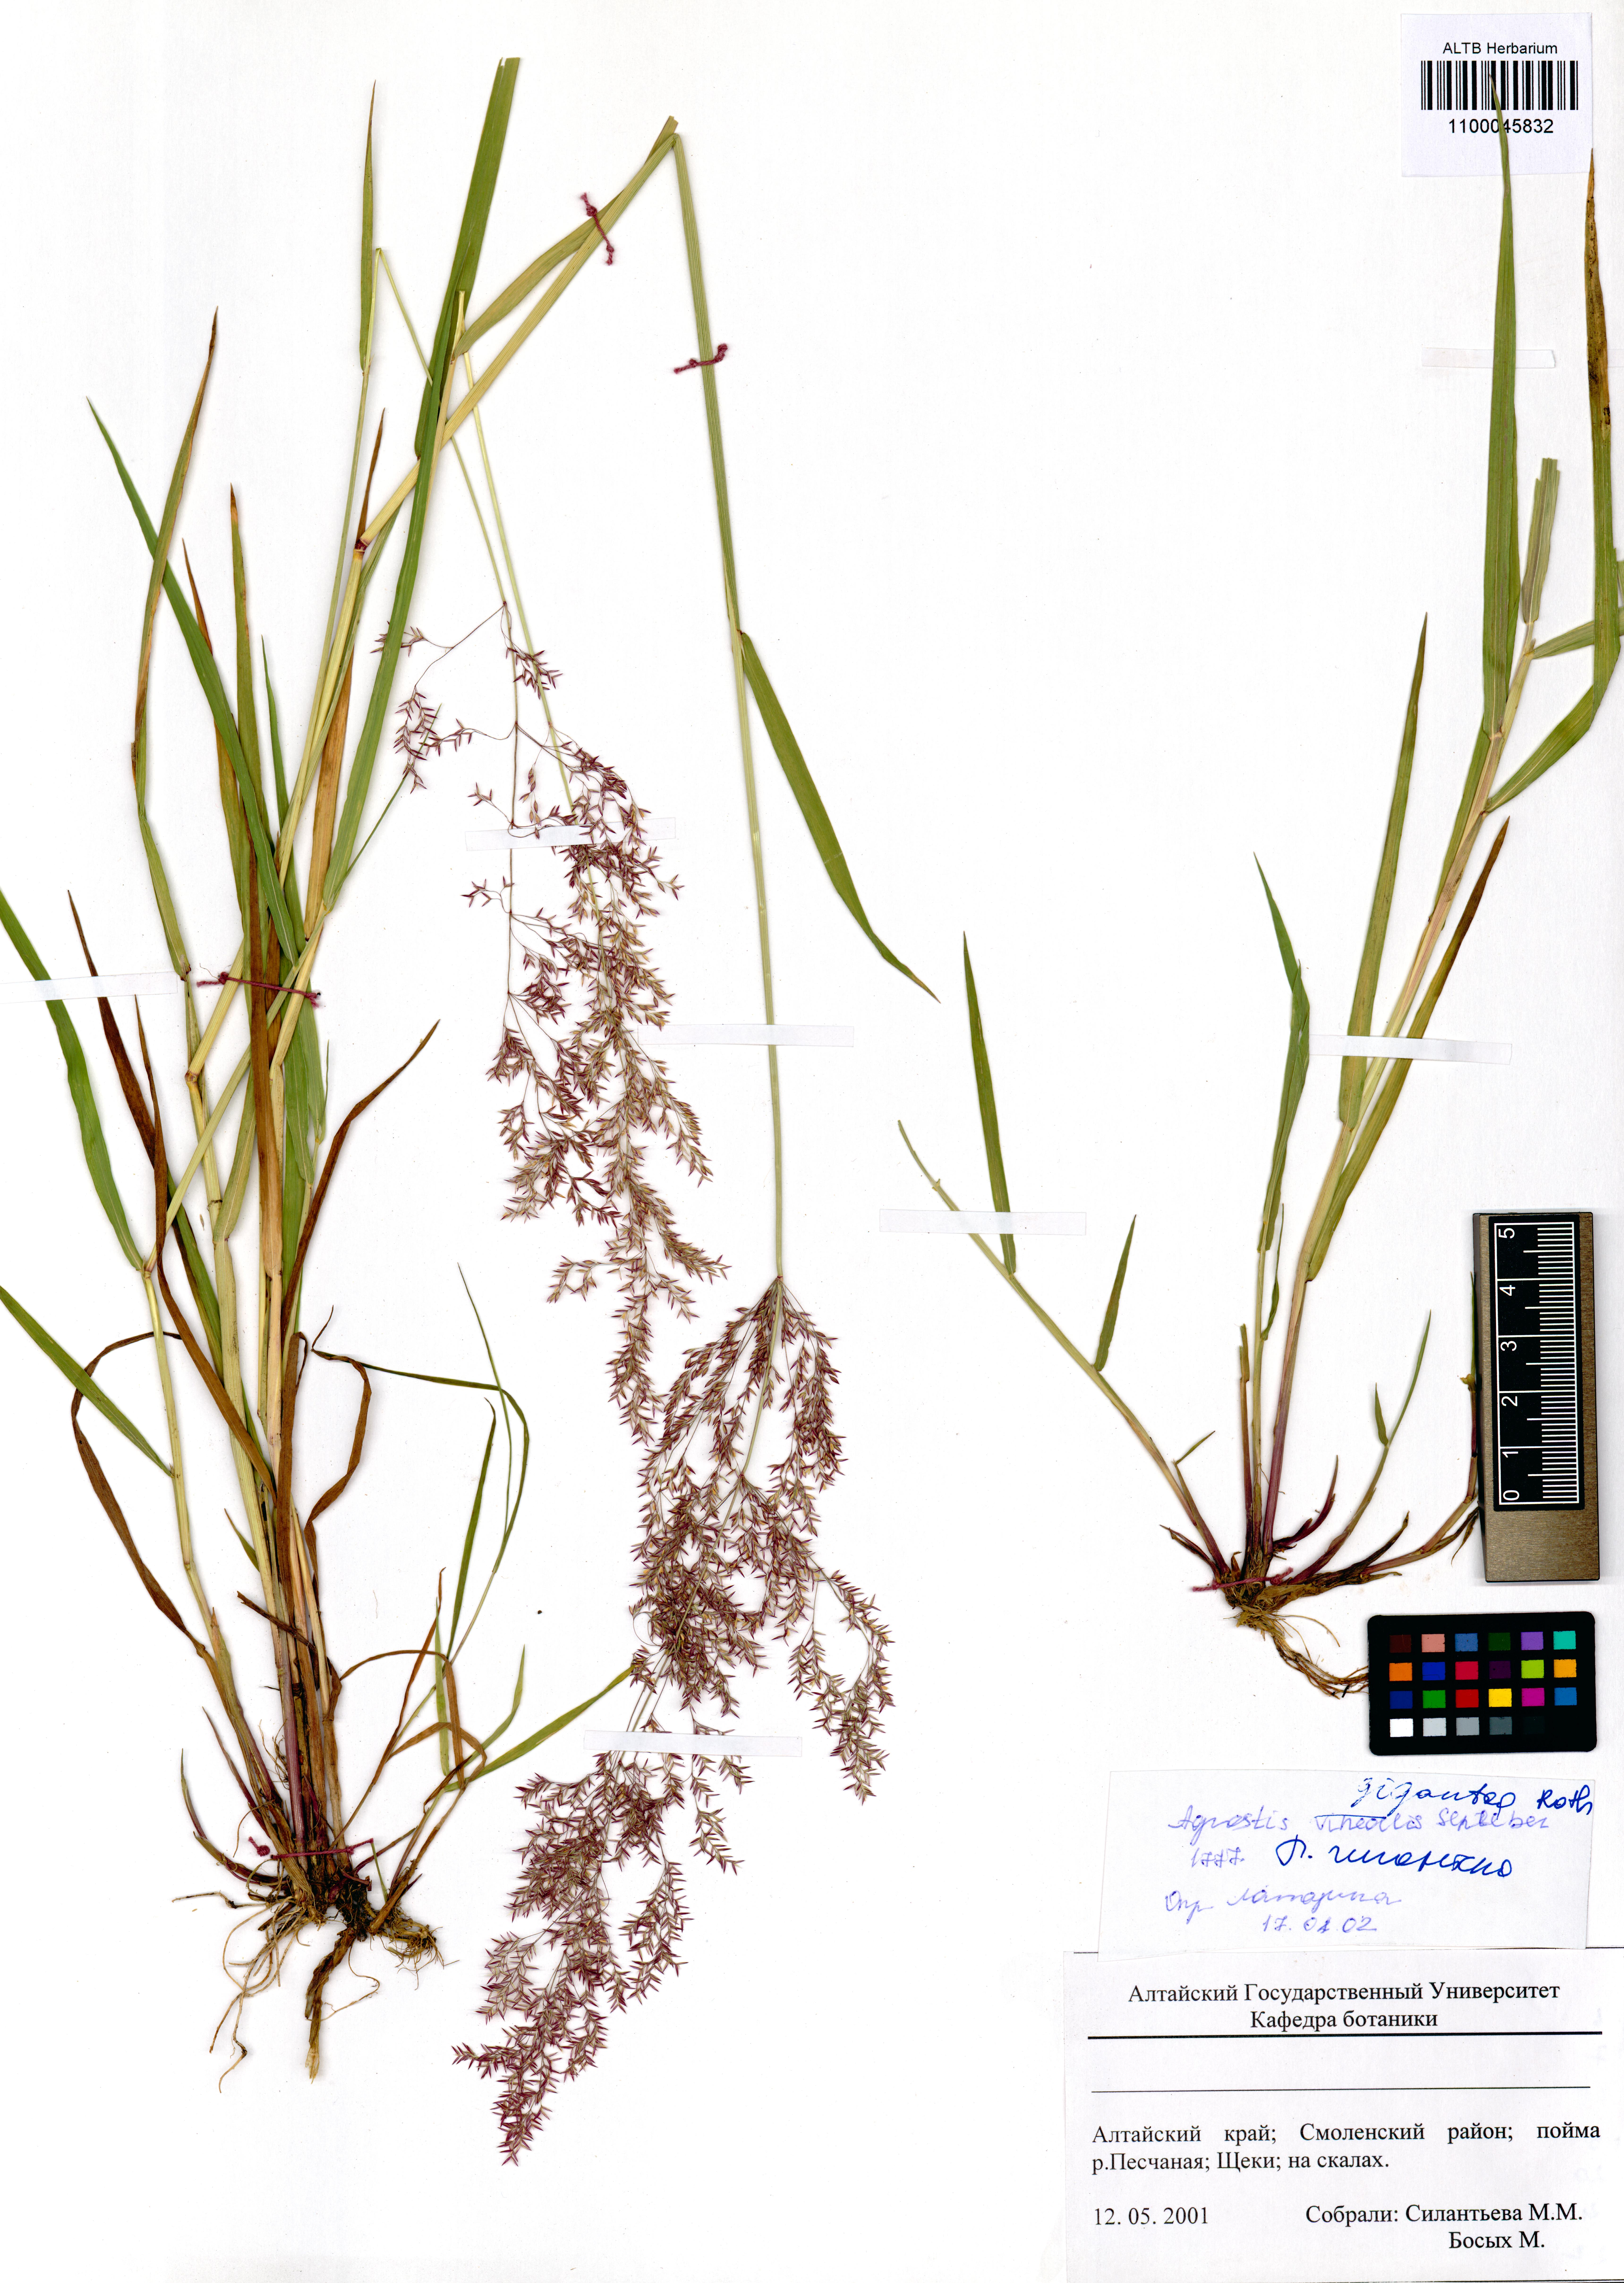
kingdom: Plantae
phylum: Tracheophyta
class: Liliopsida
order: Poales
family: Poaceae
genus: Agrostis
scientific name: Agrostis gigantea
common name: Black bent
